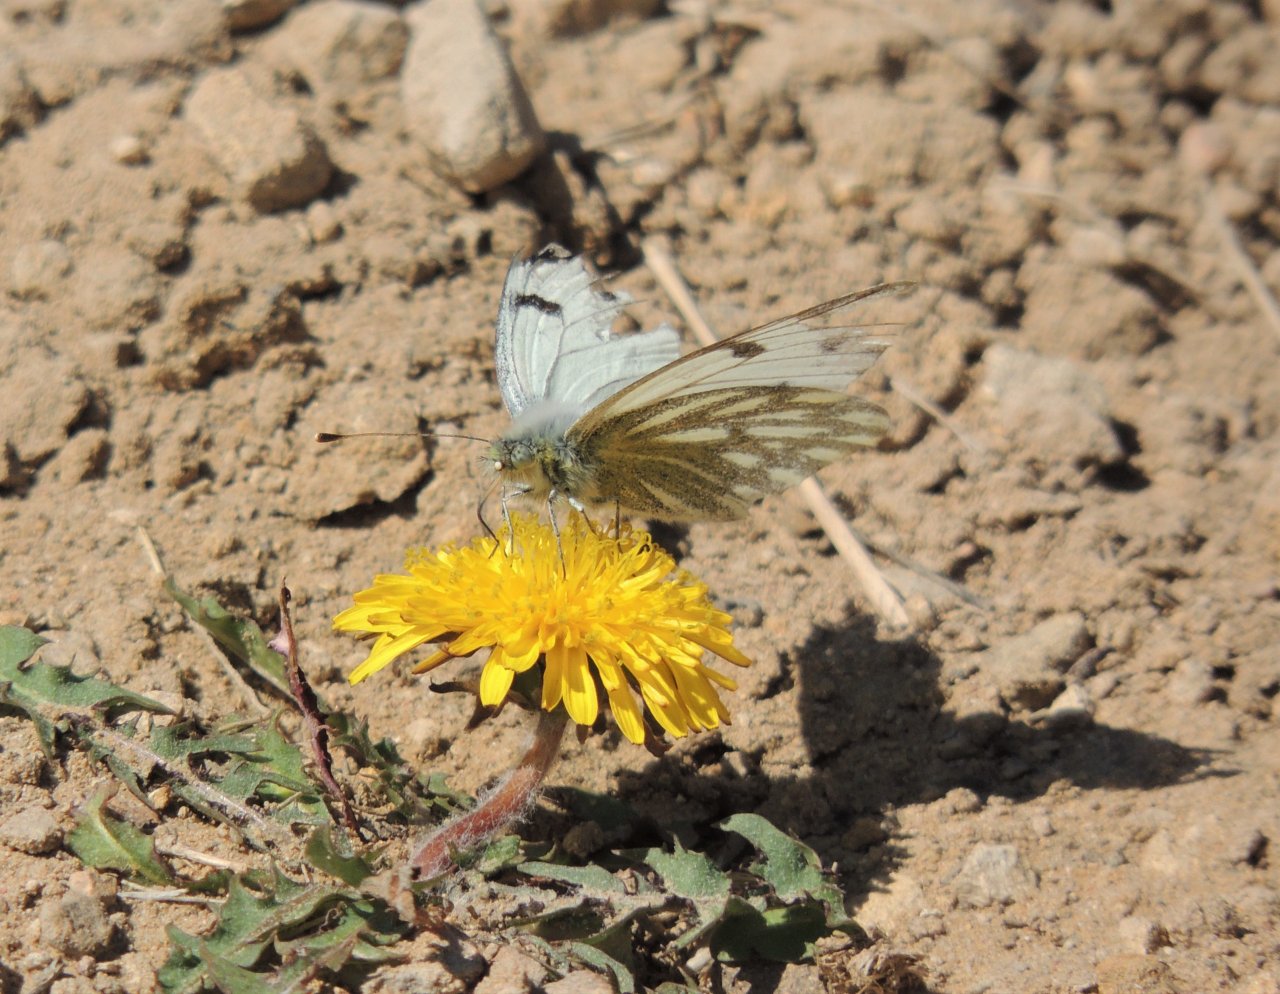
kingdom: Animalia
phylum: Arthropoda
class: Insecta
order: Lepidoptera
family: Pieridae
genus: Pontia
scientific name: Pontia occidentalis
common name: Western White
